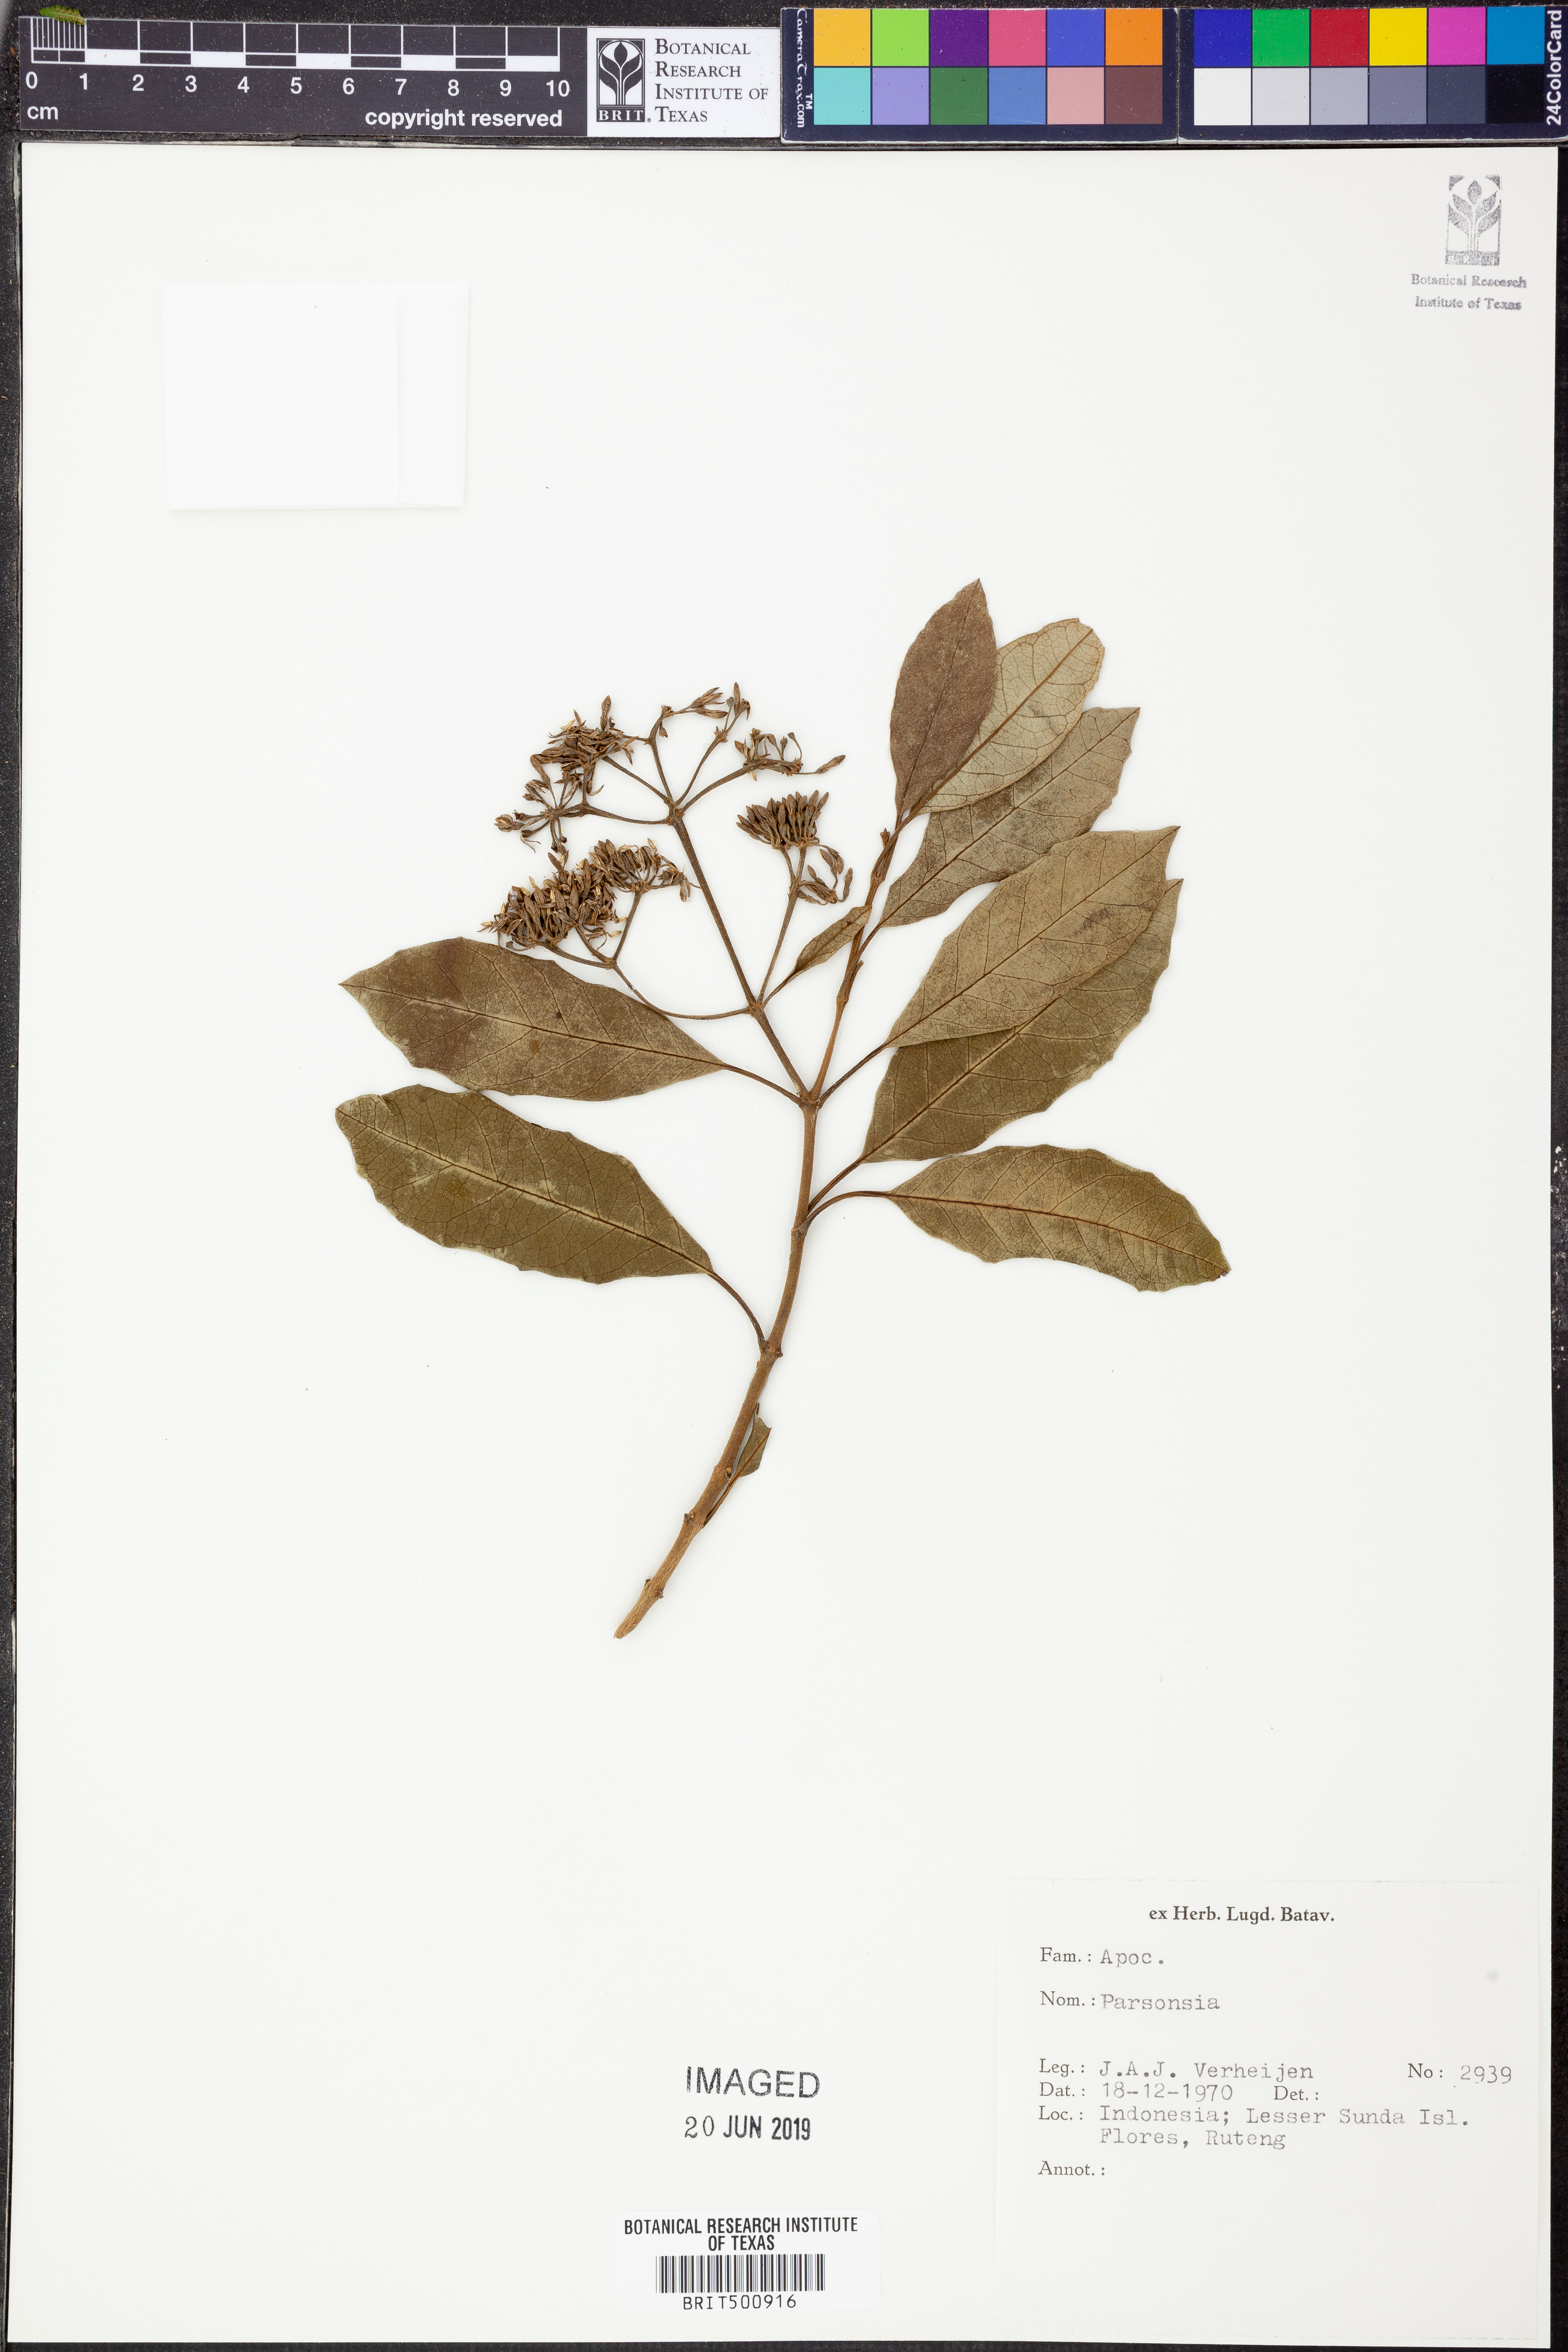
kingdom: Plantae
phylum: Tracheophyta
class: Magnoliopsida
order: Gentianales
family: Apocynaceae
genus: Parsonsia
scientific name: Parsonsia
